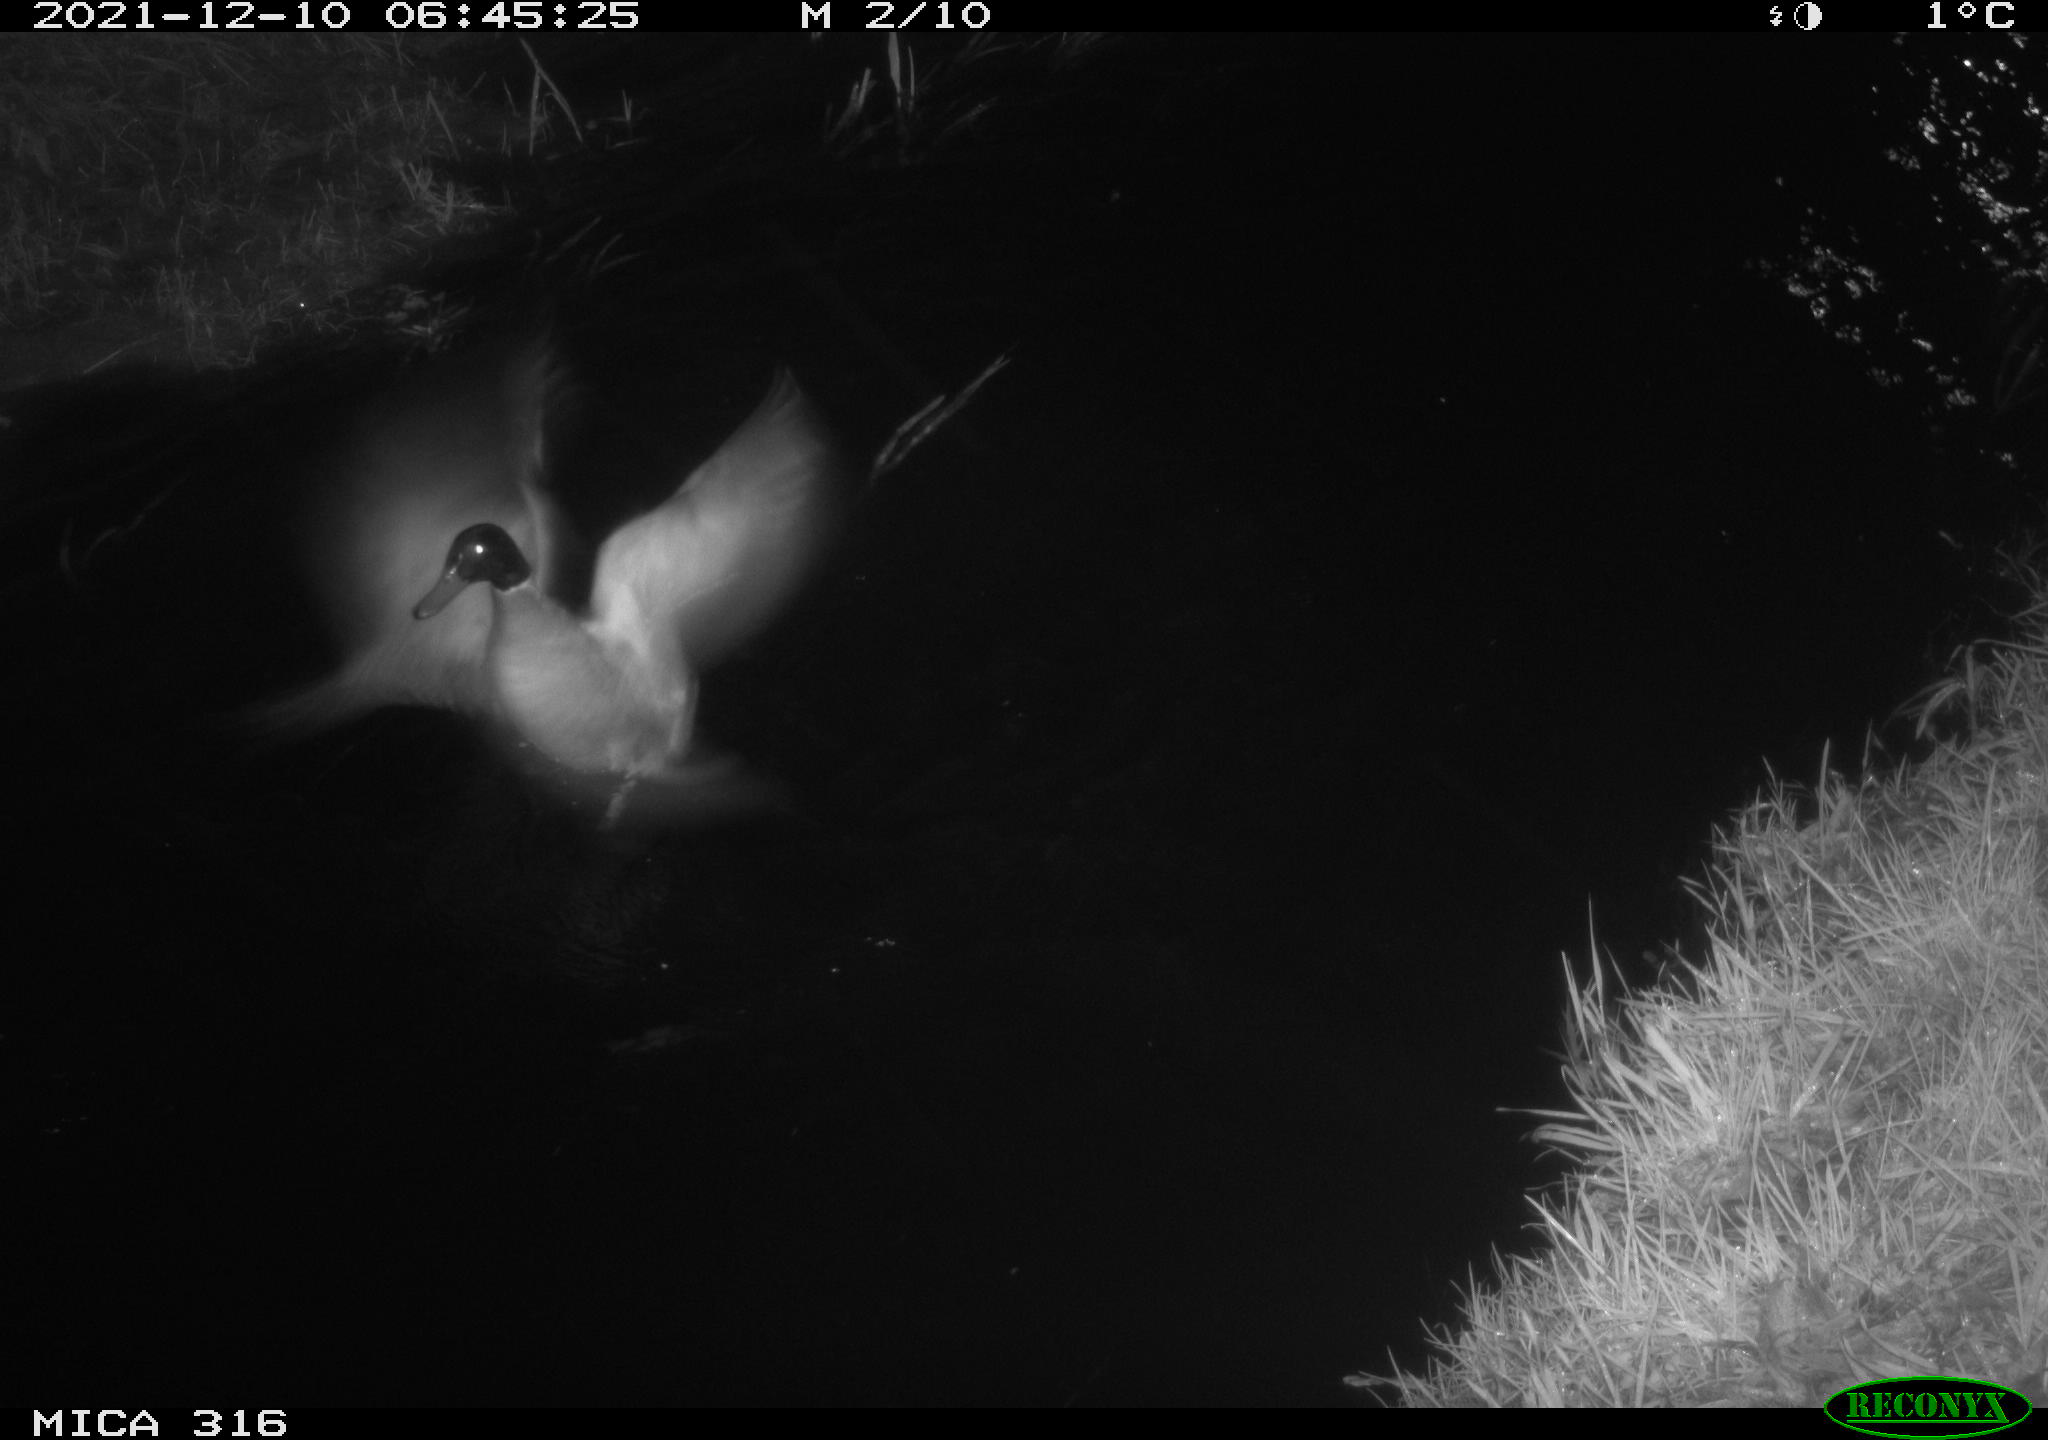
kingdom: Animalia
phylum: Chordata
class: Aves
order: Anseriformes
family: Anatidae
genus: Anas
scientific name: Anas
